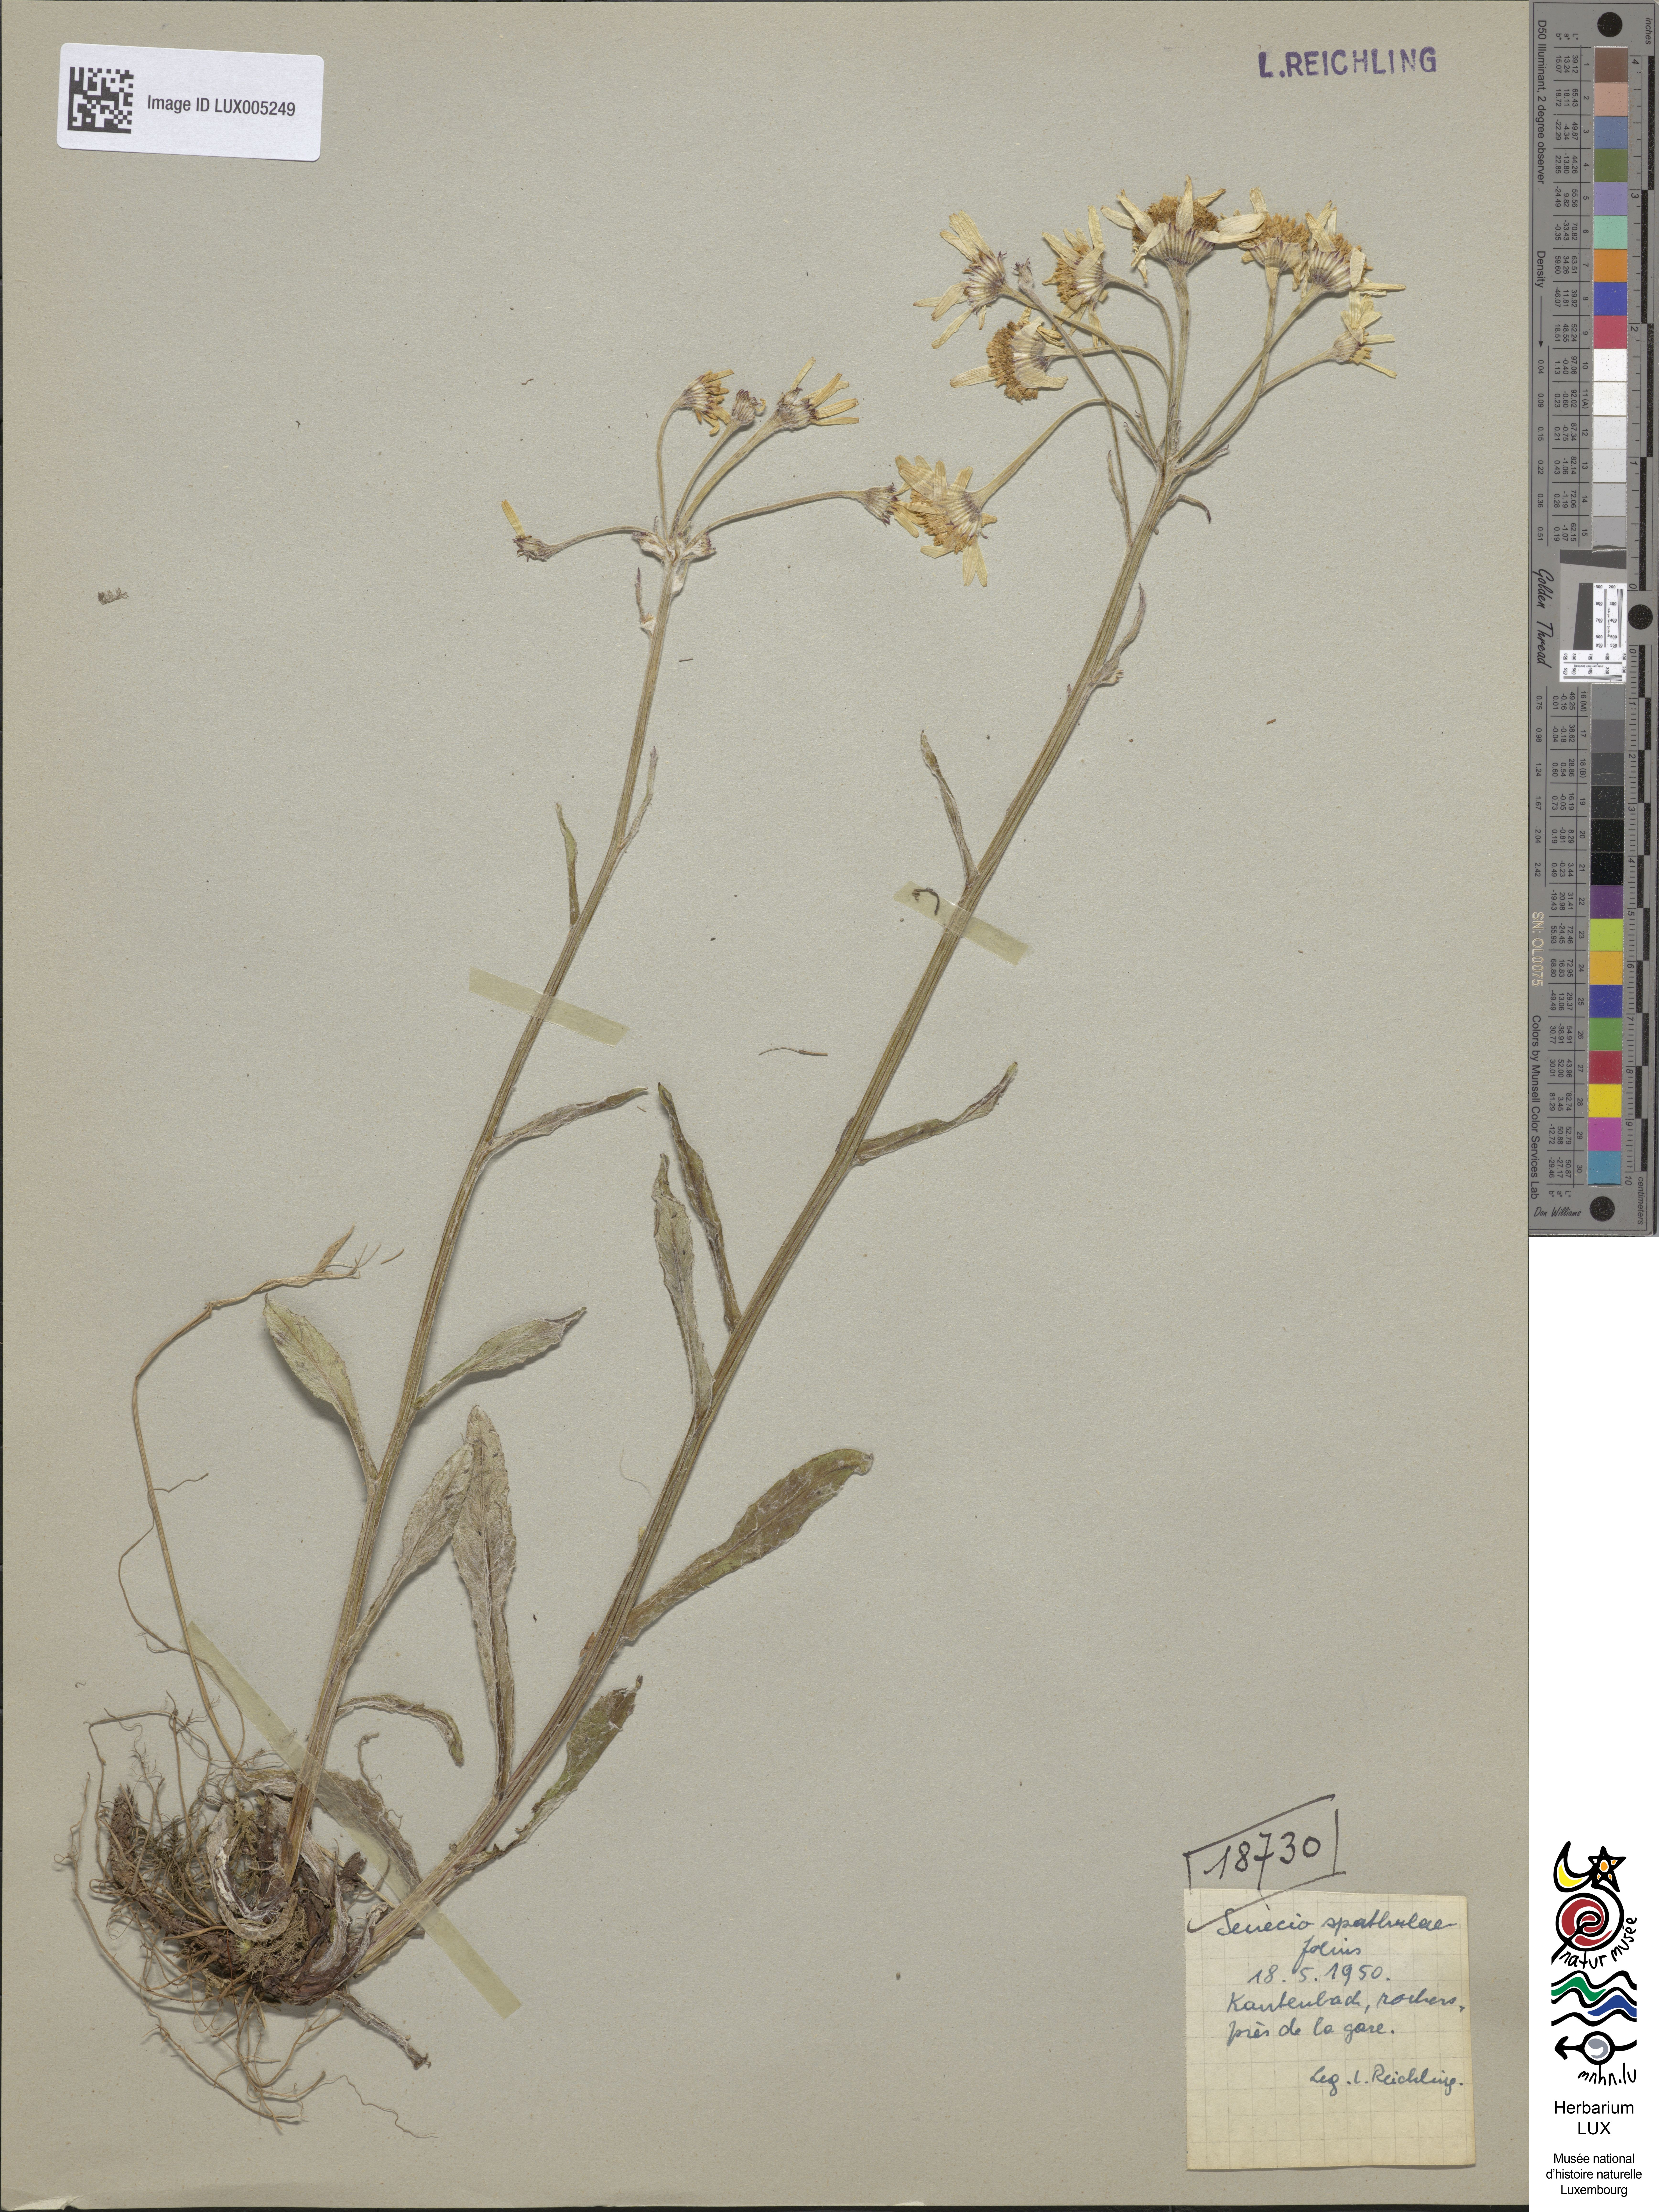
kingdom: Plantae
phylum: Tracheophyta
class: Magnoliopsida
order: Asterales
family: Asteraceae
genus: Tephroseris
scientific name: Tephroseris helenitis
